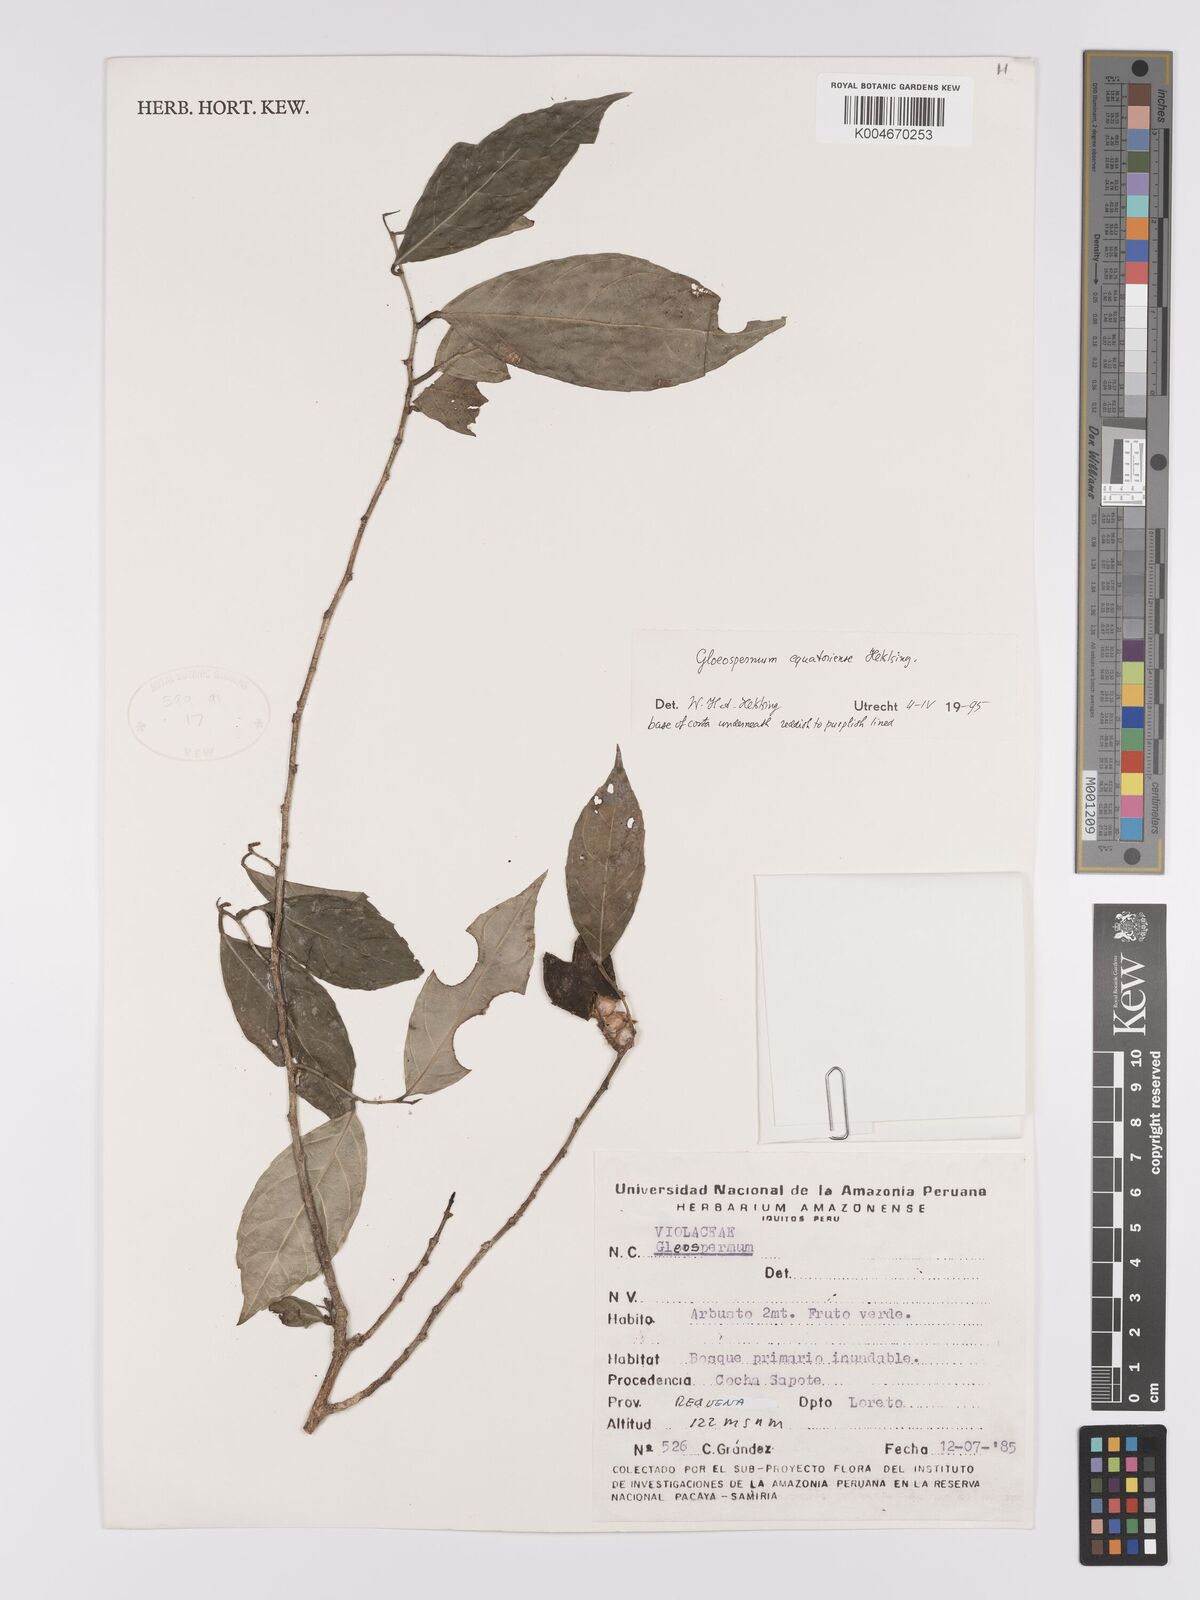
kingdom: Plantae
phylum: Tracheophyta
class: Magnoliopsida
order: Malpighiales
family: Violaceae
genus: Gloeospermum
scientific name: Gloeospermum equatoriense
